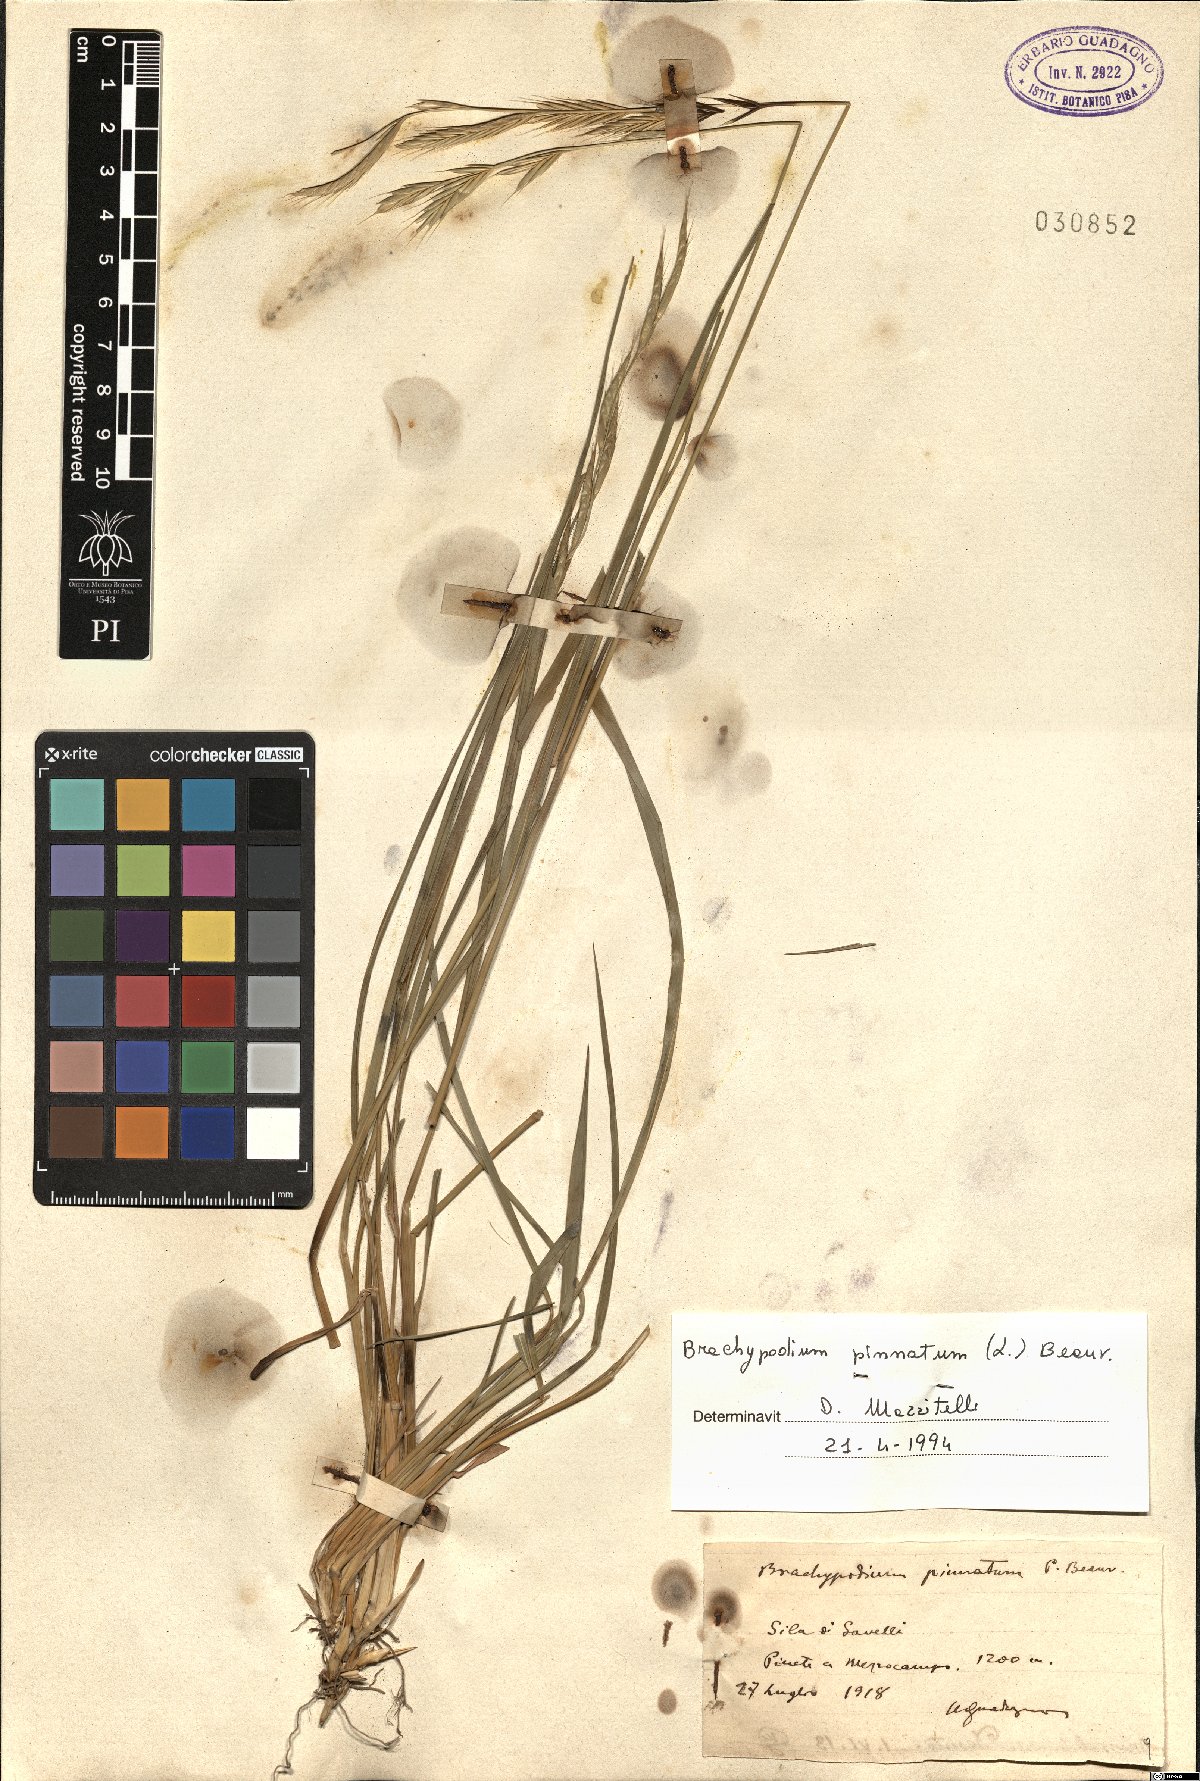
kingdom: Plantae
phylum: Tracheophyta
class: Liliopsida
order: Poales
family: Poaceae
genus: Brachypodium
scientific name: Brachypodium pinnatum
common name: Tor grass
